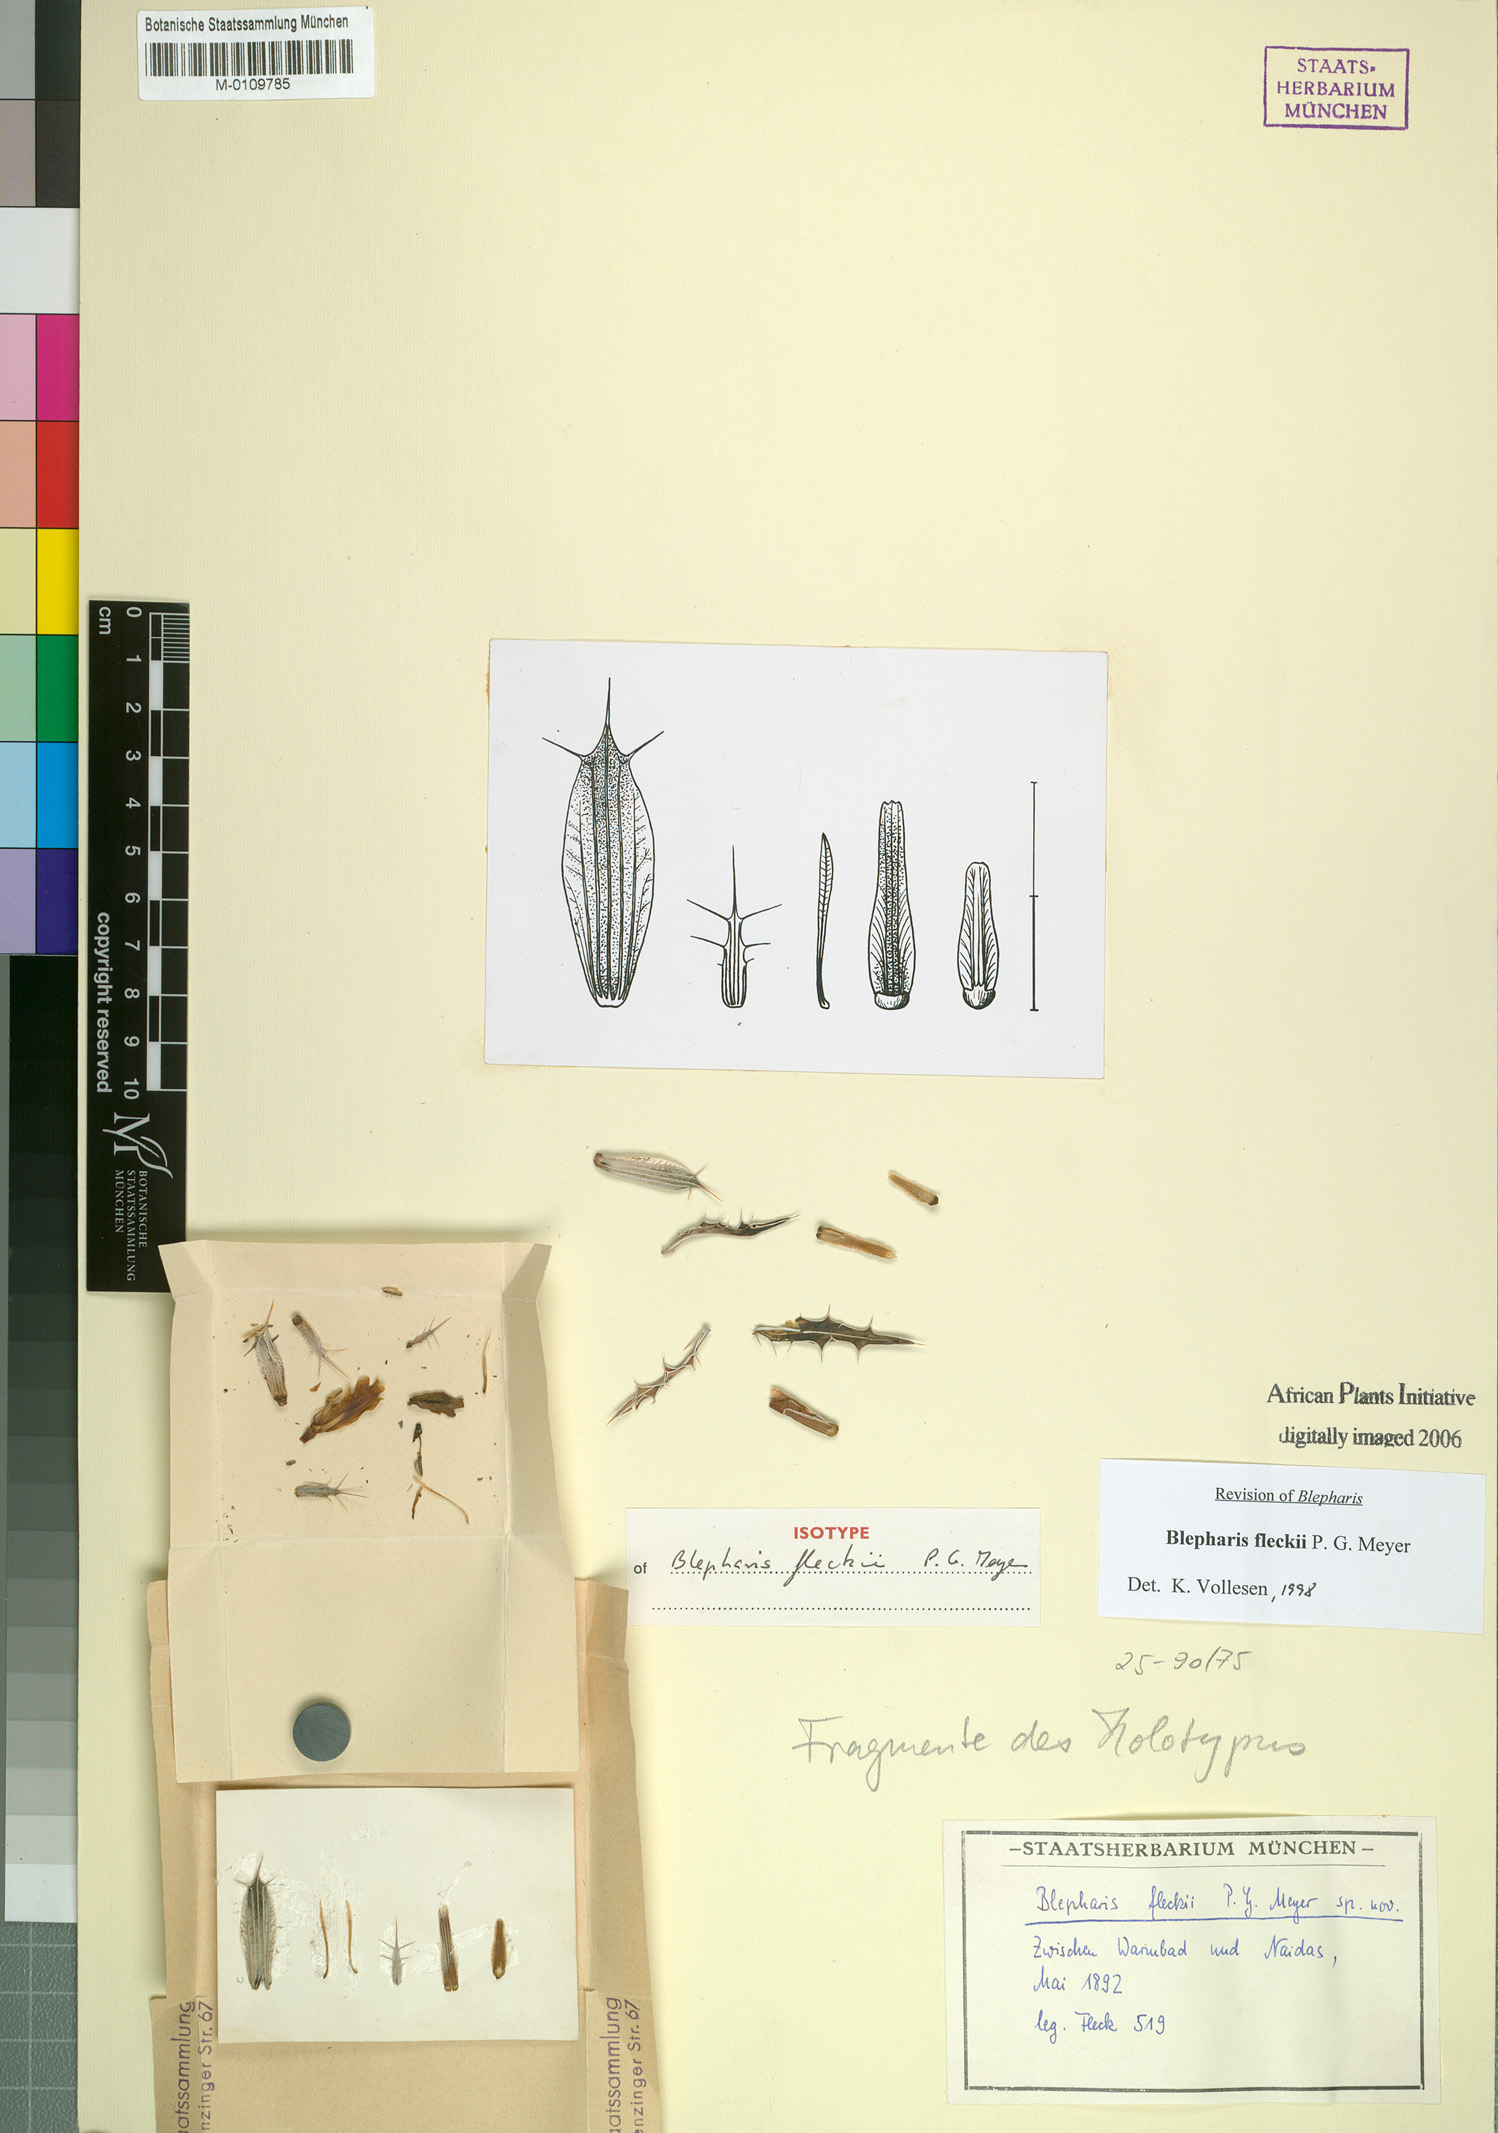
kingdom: Plantae
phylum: Tracheophyta
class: Magnoliopsida
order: Lamiales
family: Acanthaceae
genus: Blepharis
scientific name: Blepharis fleckii
